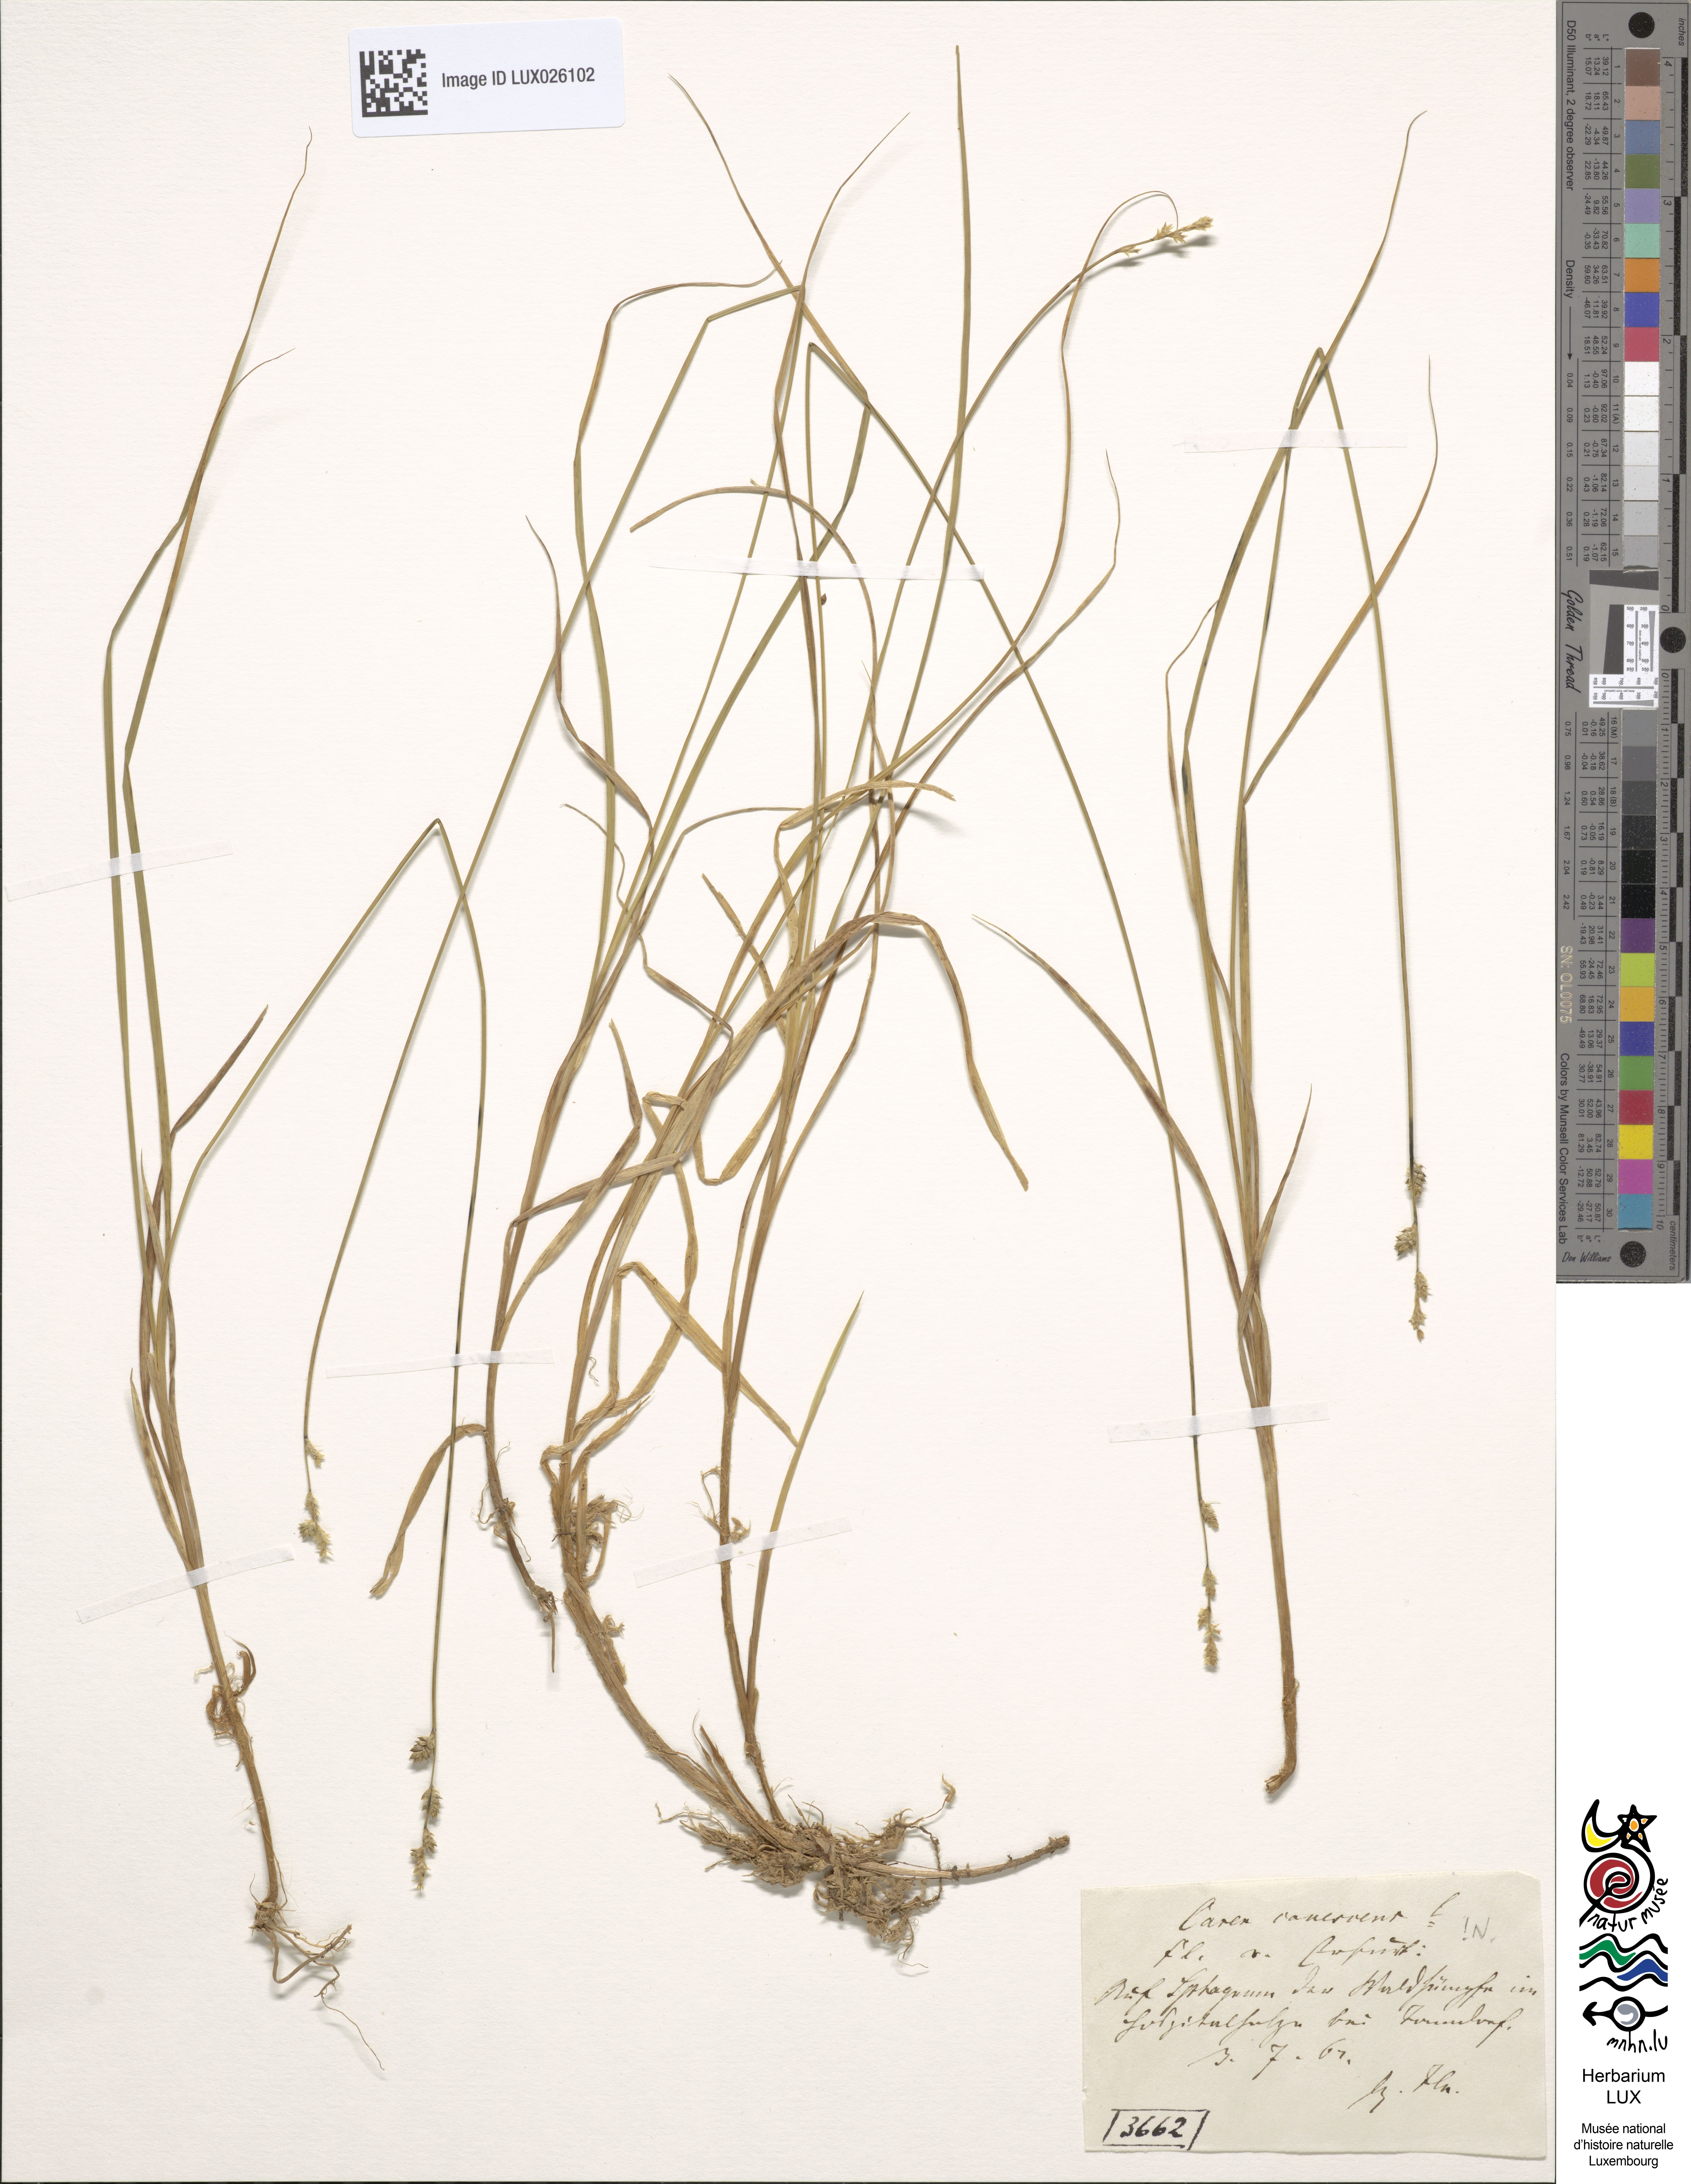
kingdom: Plantae
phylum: Tracheophyta
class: Liliopsida
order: Poales
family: Cyperaceae
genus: Carex
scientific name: Carex canescens
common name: White sedge
